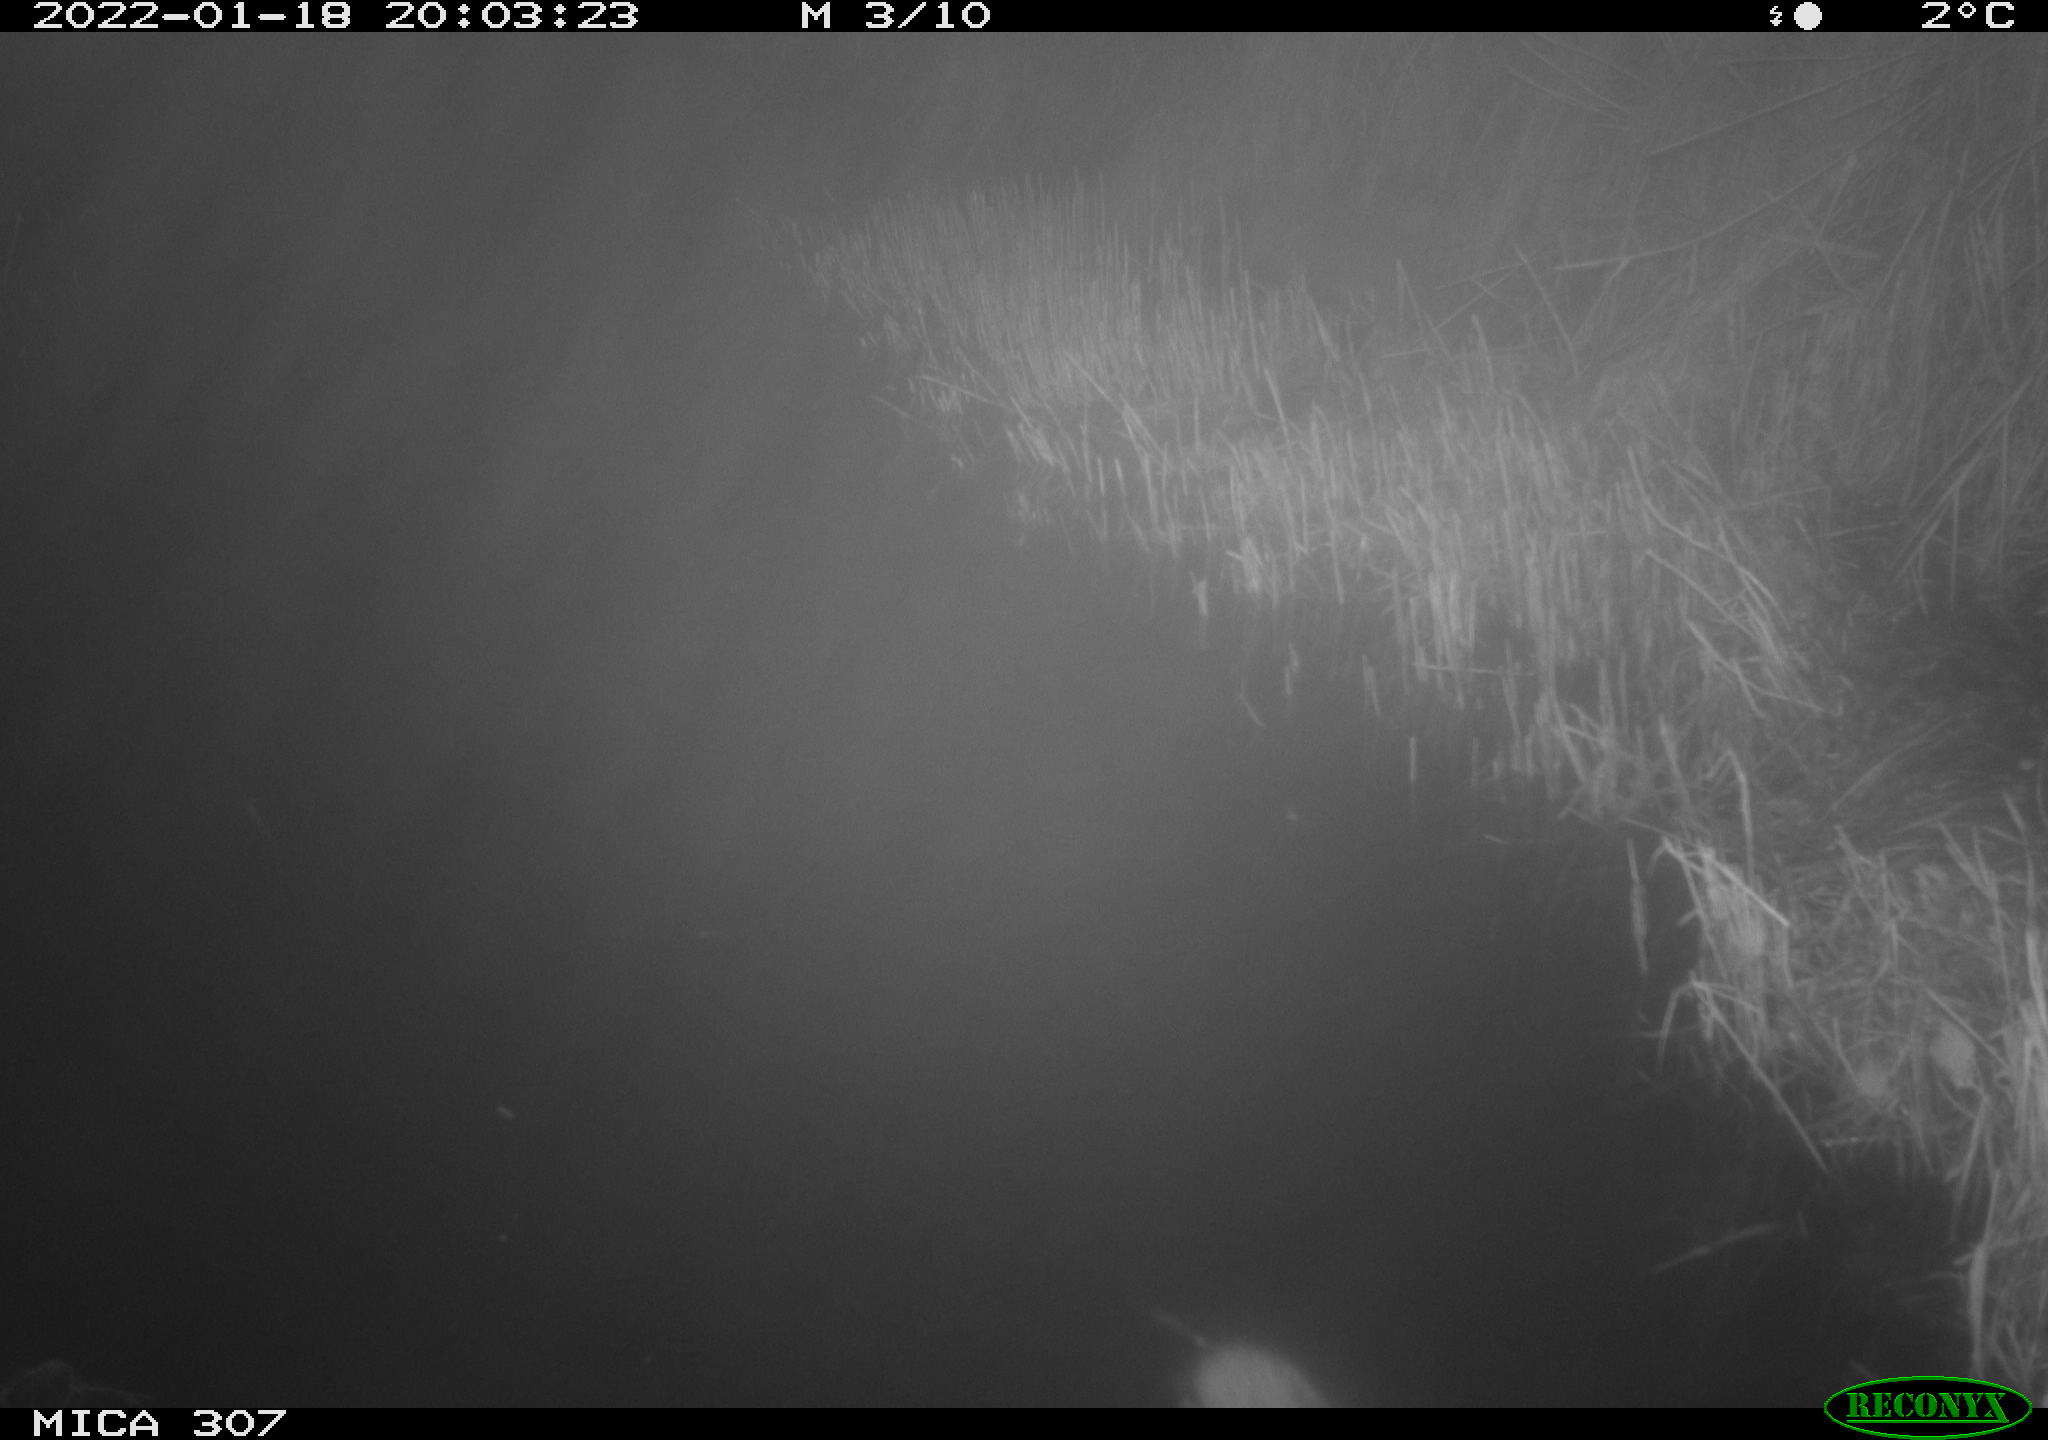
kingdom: Animalia
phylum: Chordata
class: Mammalia
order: Rodentia
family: Muridae
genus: Rattus
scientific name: Rattus norvegicus
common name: Brown rat
